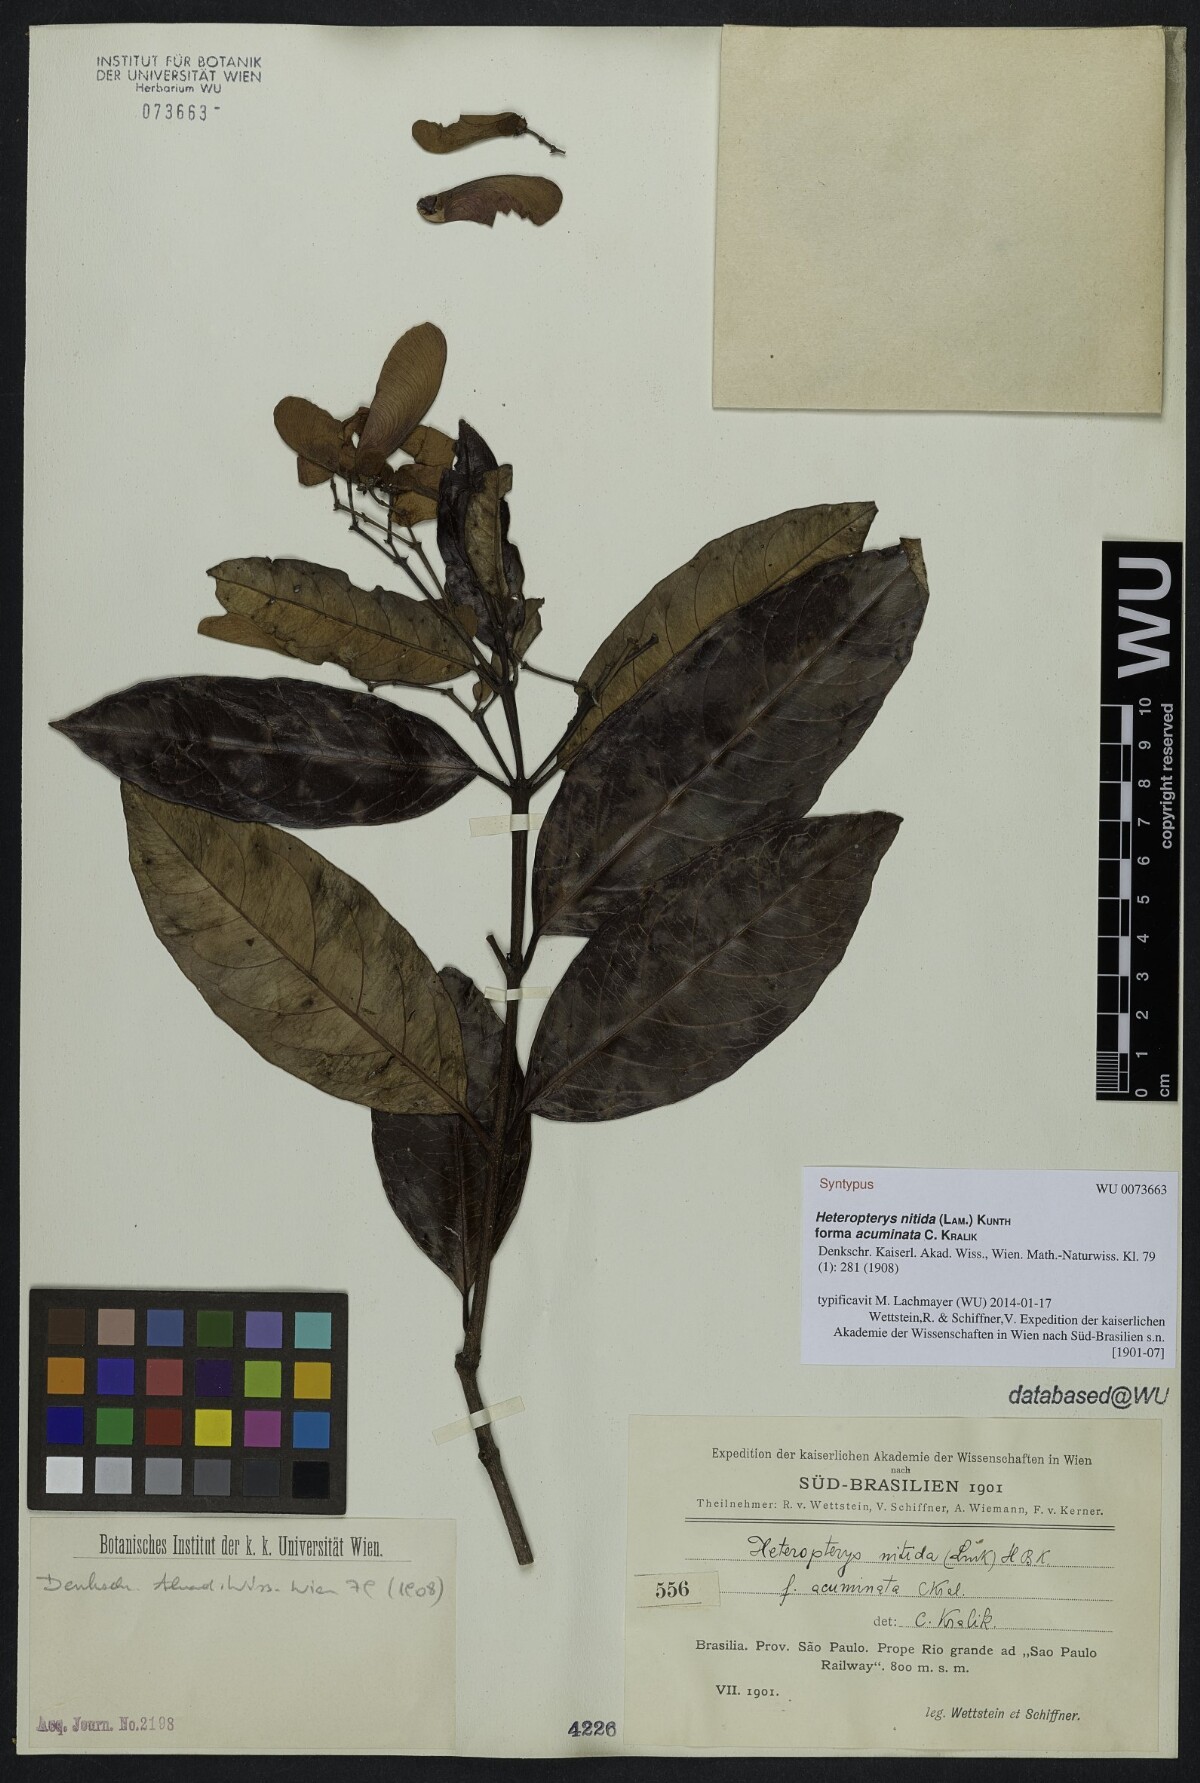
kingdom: Plantae
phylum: Tracheophyta
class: Magnoliopsida
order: Malpighiales
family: Malpighiaceae
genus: Heteropterys
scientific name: Heteropterys nitida
